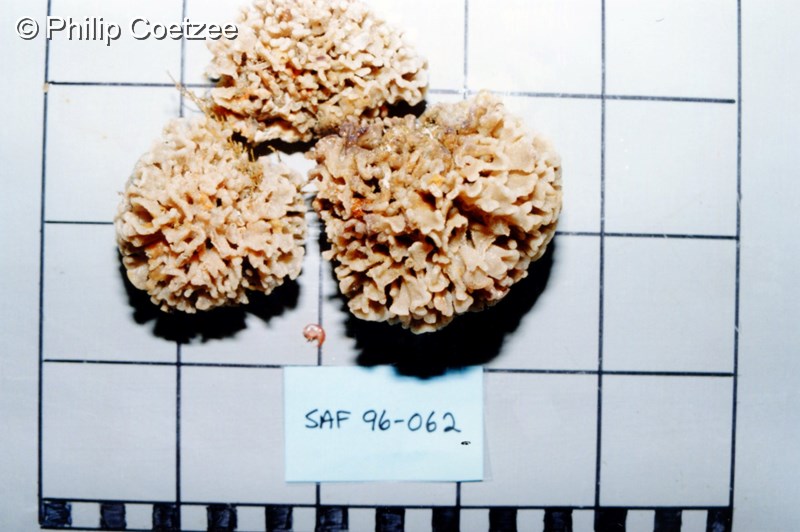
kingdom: Animalia
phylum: Bryozoa
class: Stenolaemata
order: Cyclostomatida
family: Tubuliporidae
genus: Tennysonia
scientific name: Tennysonia stellata
